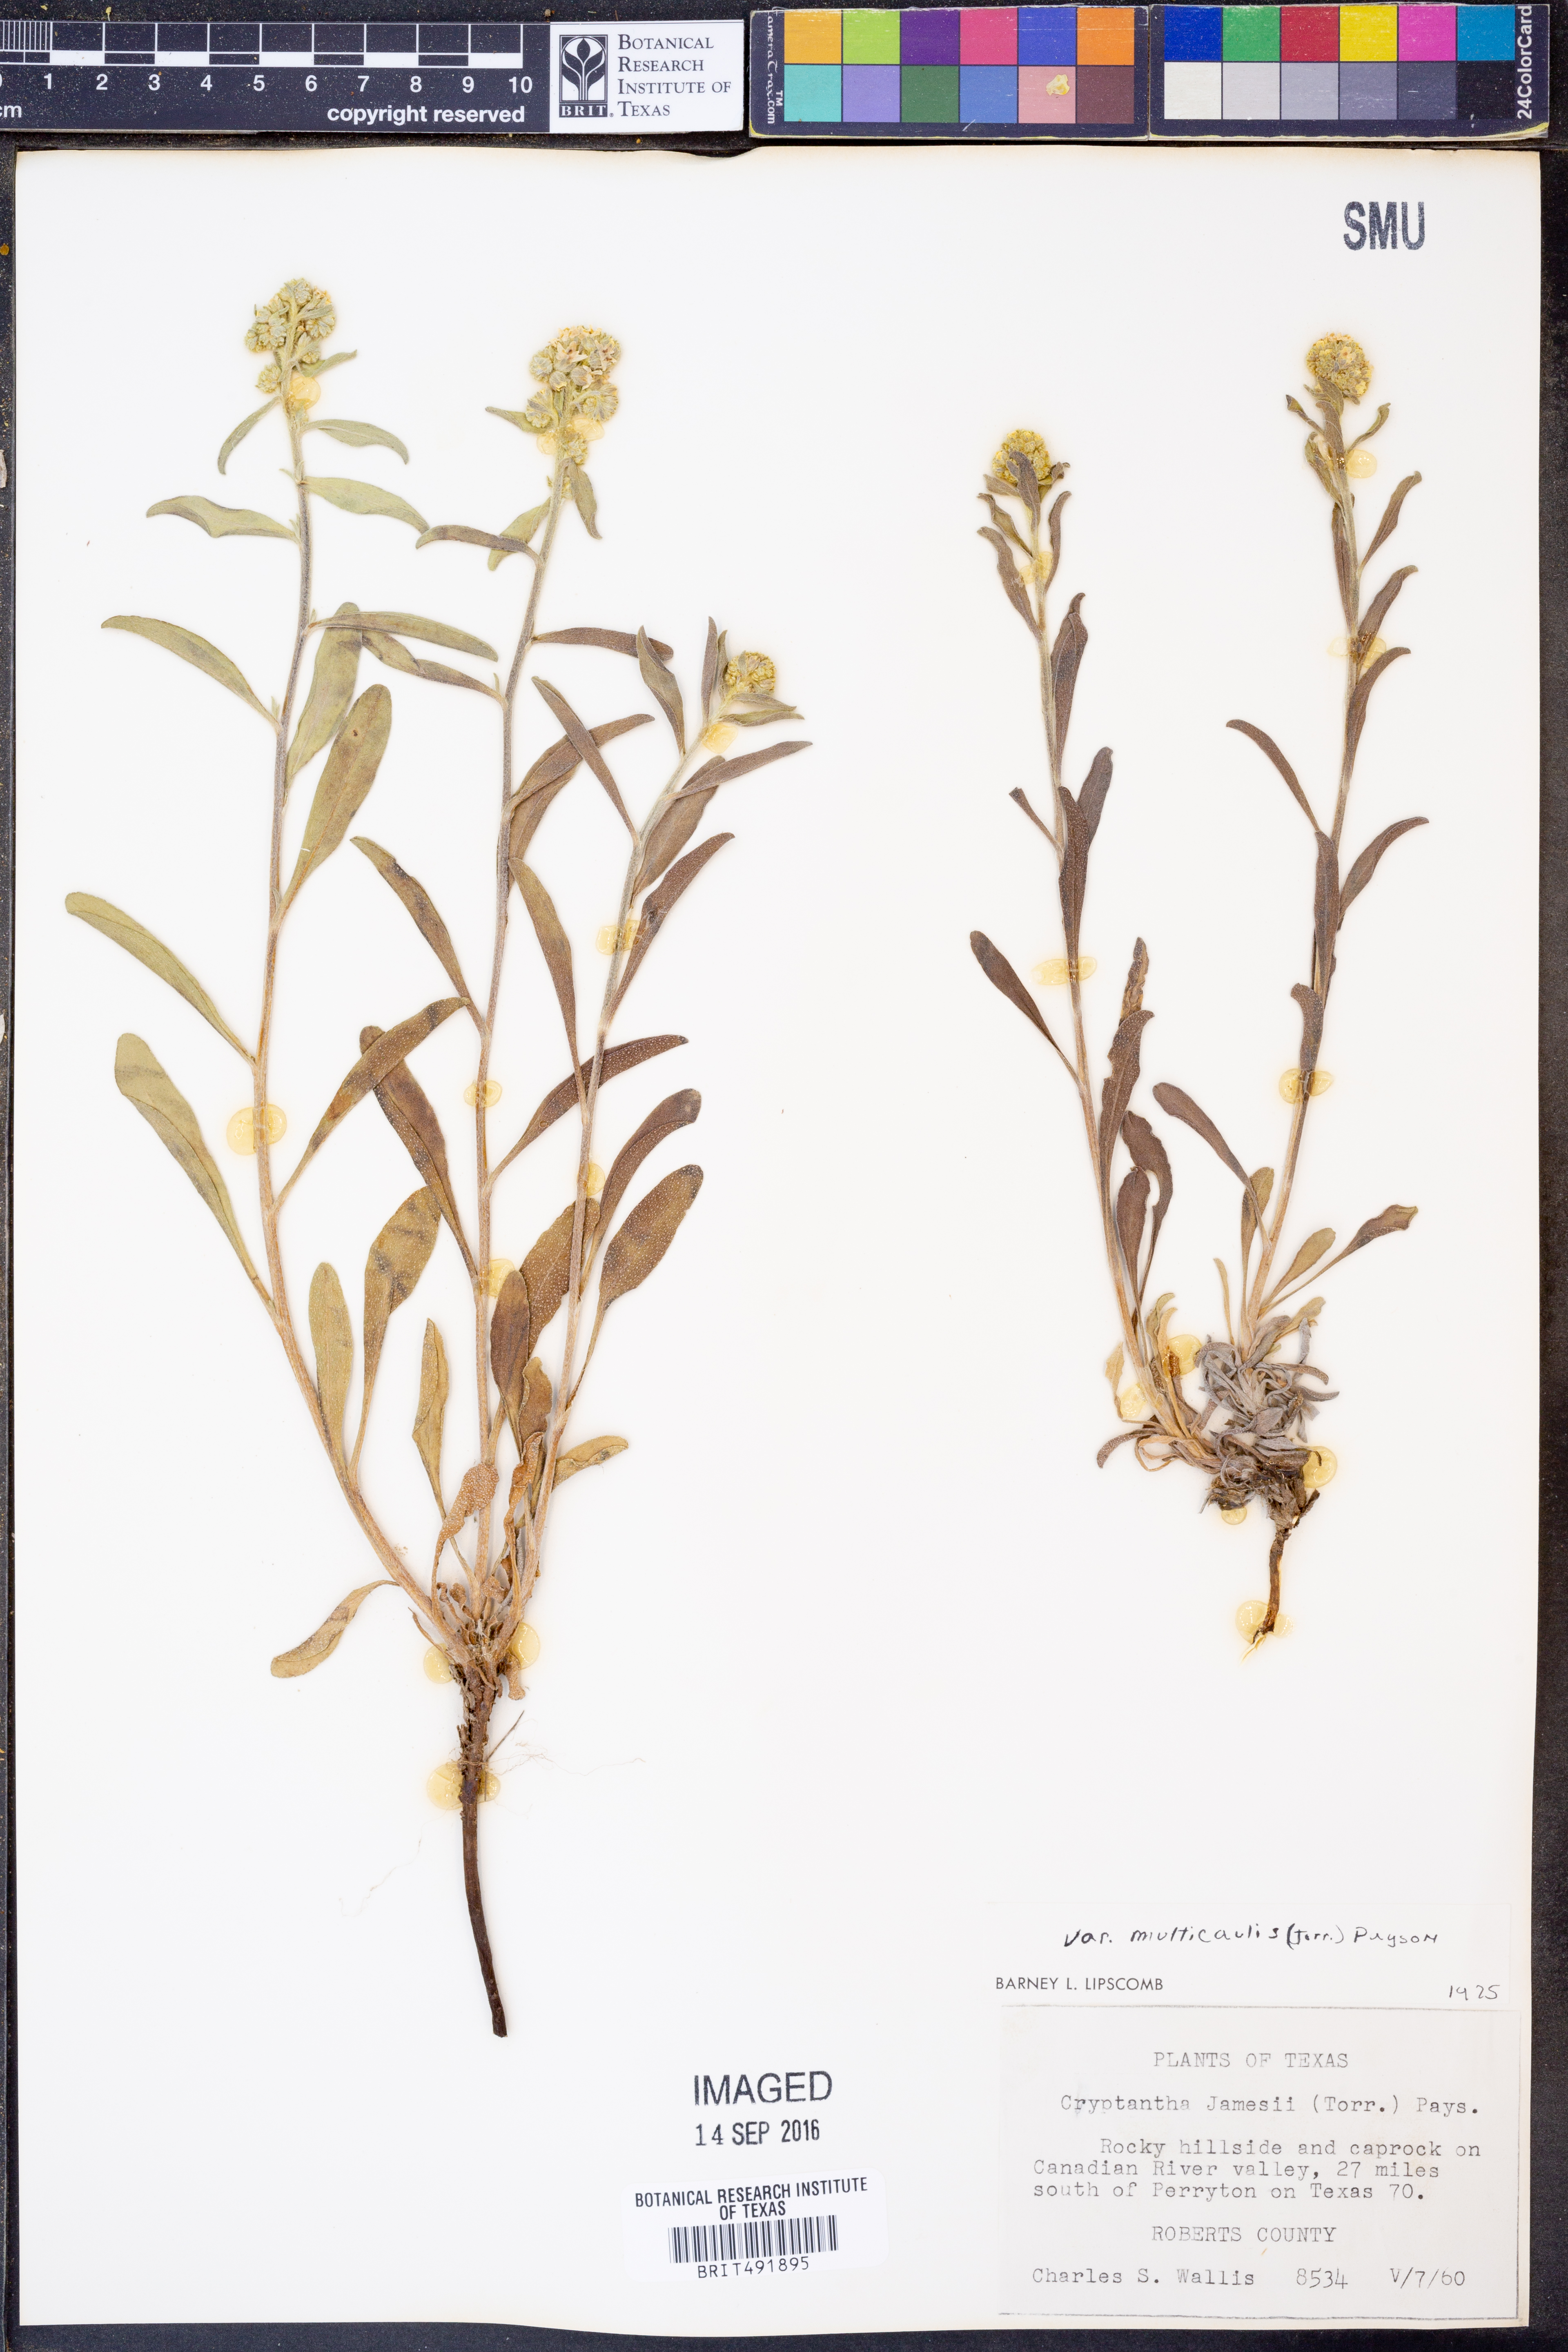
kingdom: Plantae
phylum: Tracheophyta
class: Magnoliopsida
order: Boraginales
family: Boraginaceae
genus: Oreocarya
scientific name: Oreocarya suffruticosa
